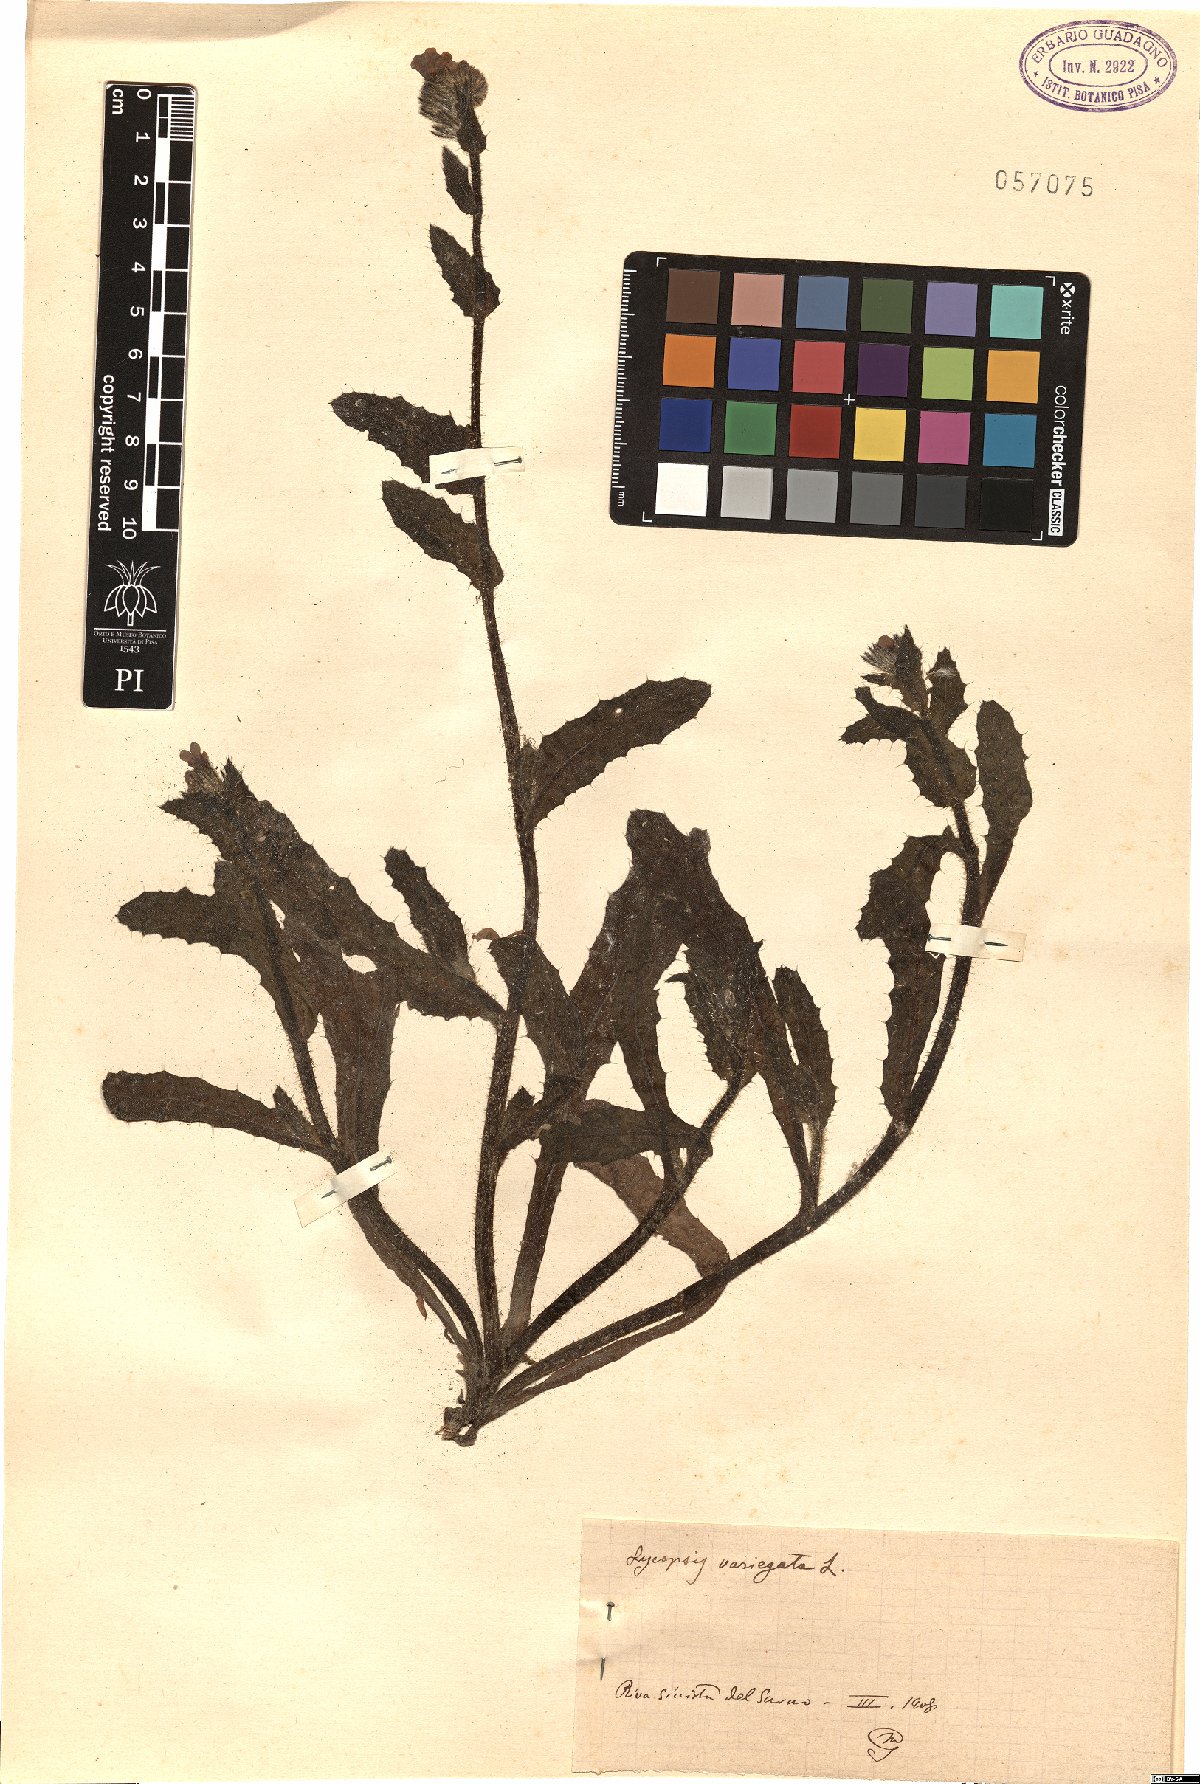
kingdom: Plantae
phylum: Tracheophyta
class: Magnoliopsida
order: Boraginales
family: Boraginaceae
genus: Anchusella
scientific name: Anchusella variegata
